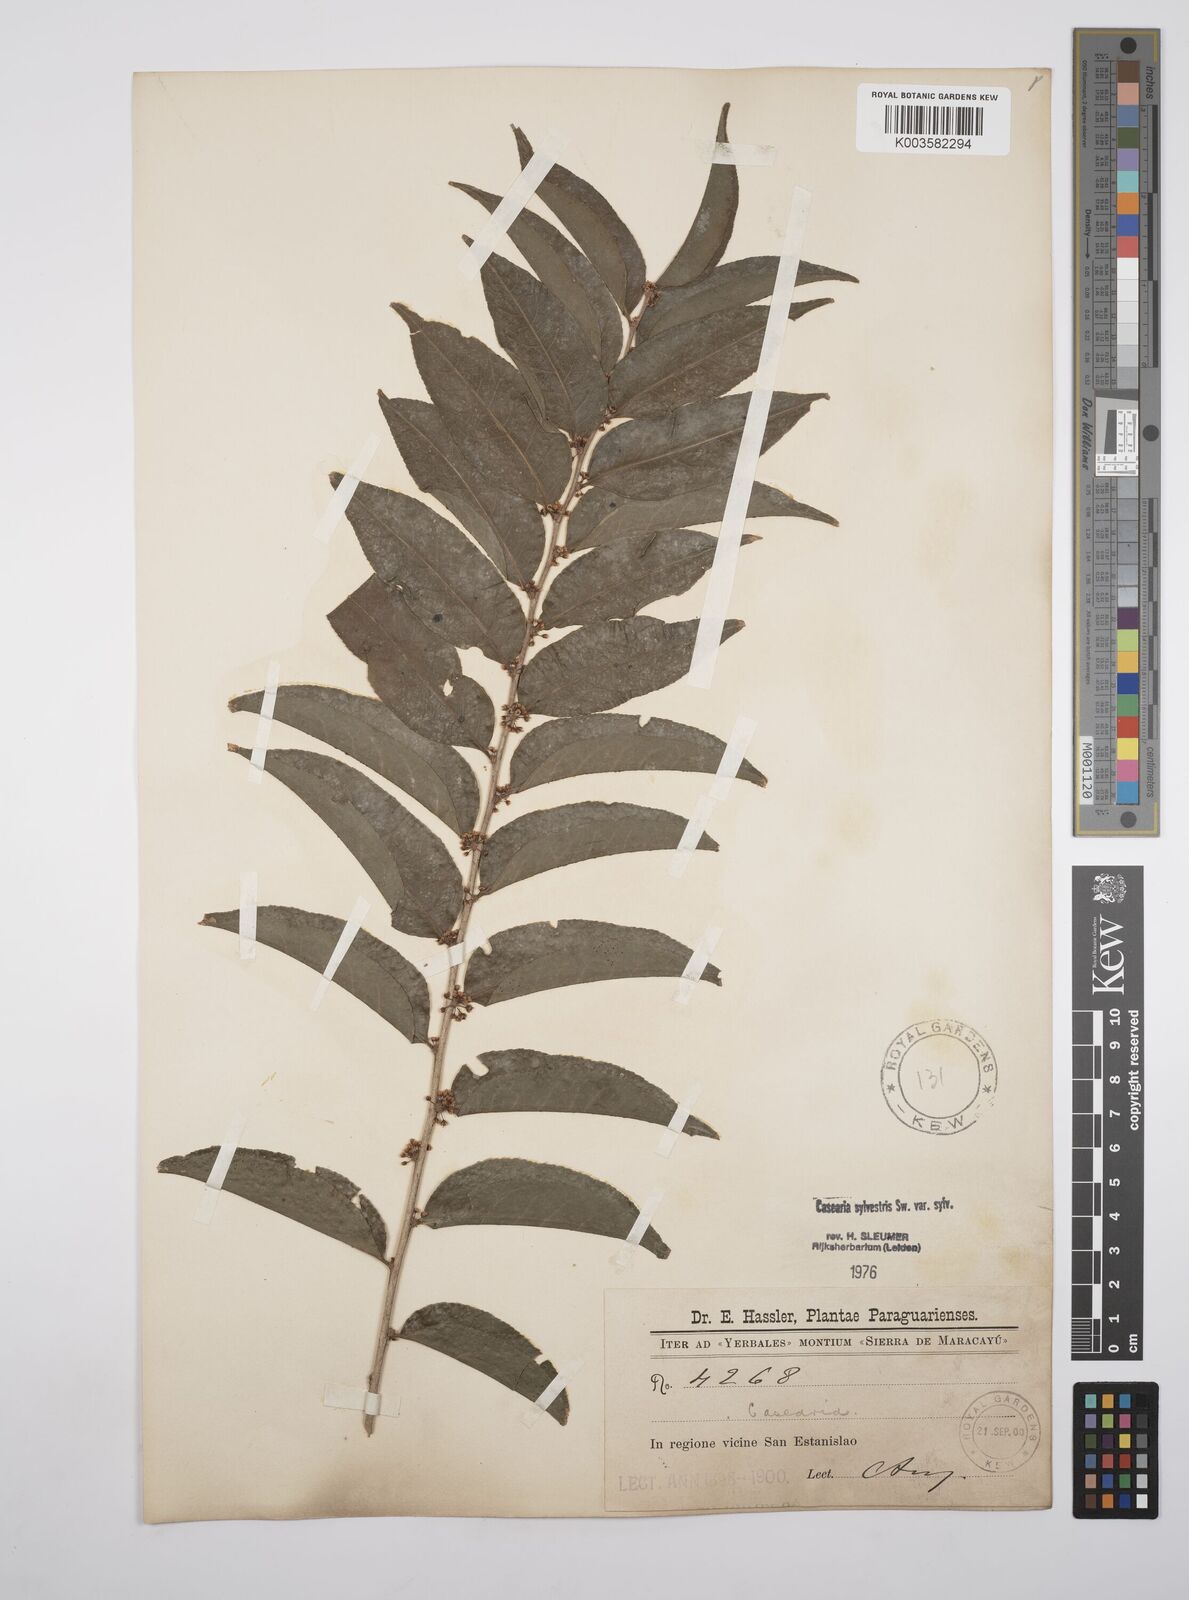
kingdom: Plantae
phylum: Tracheophyta
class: Magnoliopsida
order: Malpighiales
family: Salicaceae
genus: Casearia
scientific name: Casearia sylvestris
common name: Wild sage
